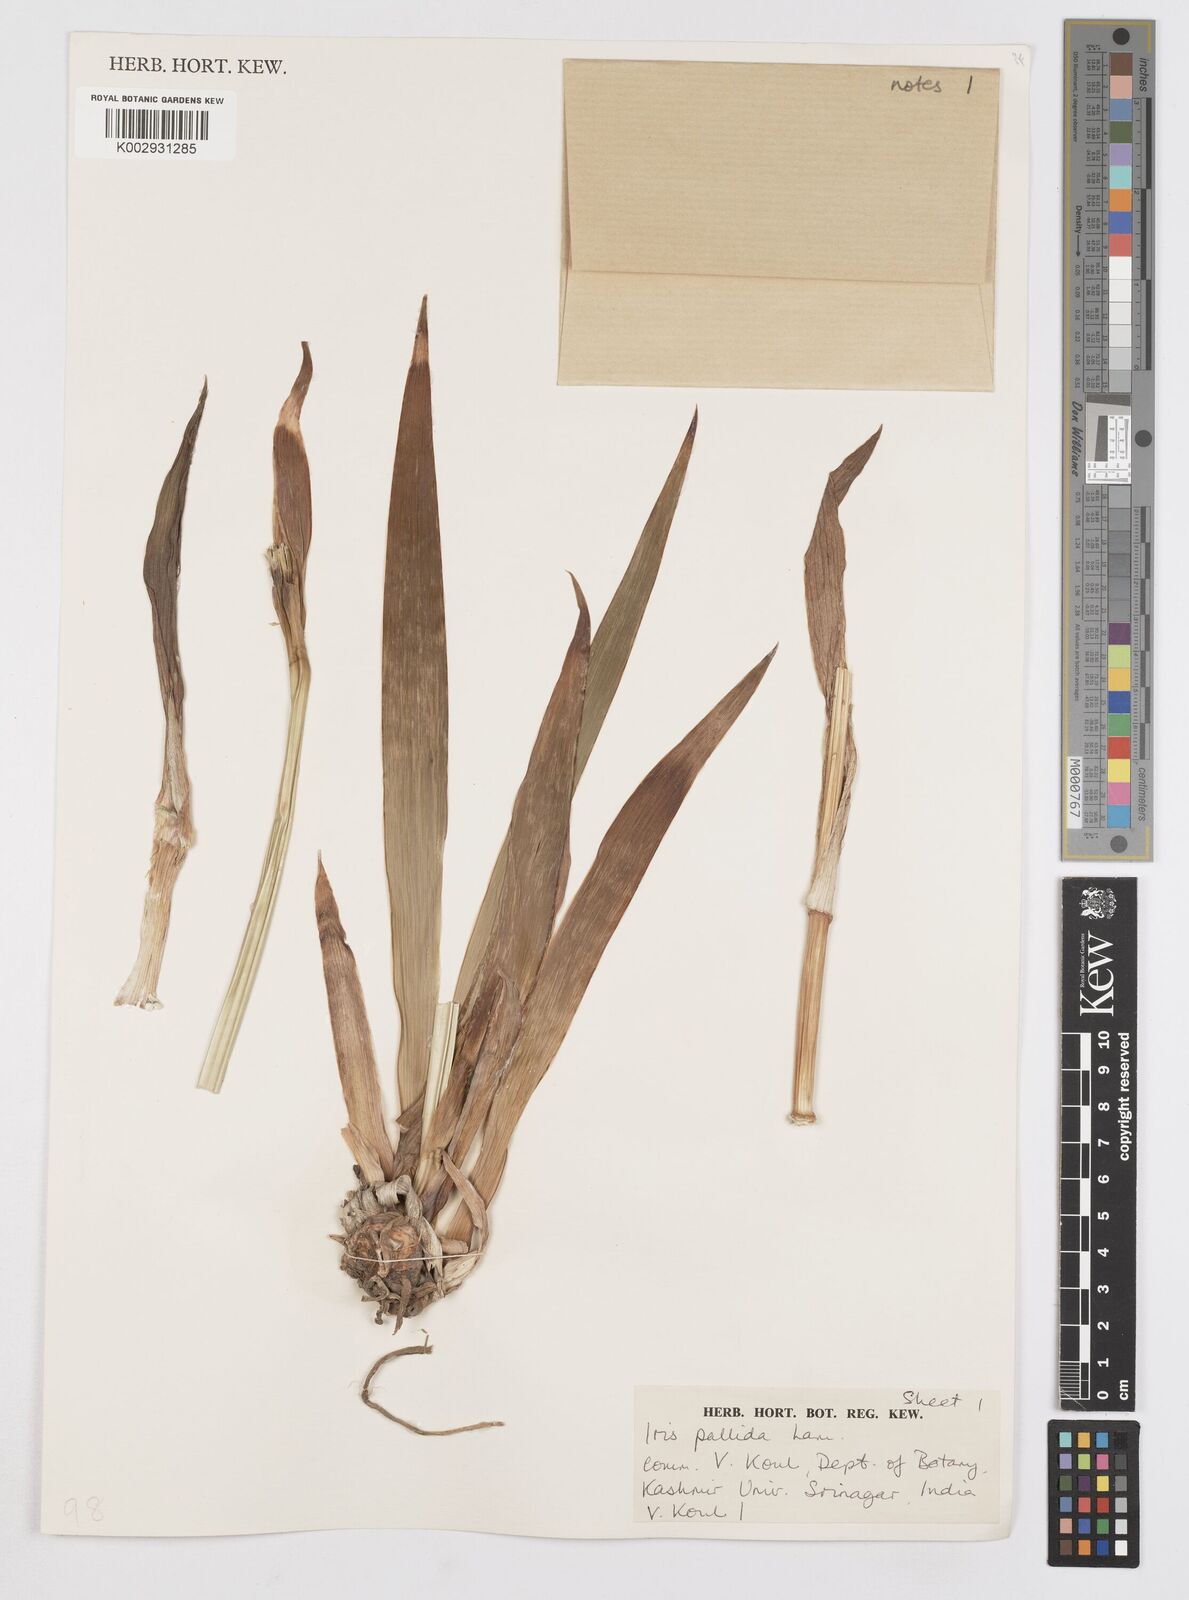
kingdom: Plantae
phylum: Tracheophyta
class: Liliopsida
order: Asparagales
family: Iridaceae
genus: Iris
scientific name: Iris pallida
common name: Sweet iris
